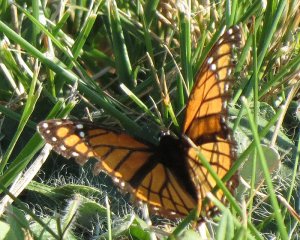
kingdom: Animalia
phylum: Arthropoda
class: Insecta
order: Lepidoptera
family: Nymphalidae
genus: Limenitis
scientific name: Limenitis archippus
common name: Viceroy
